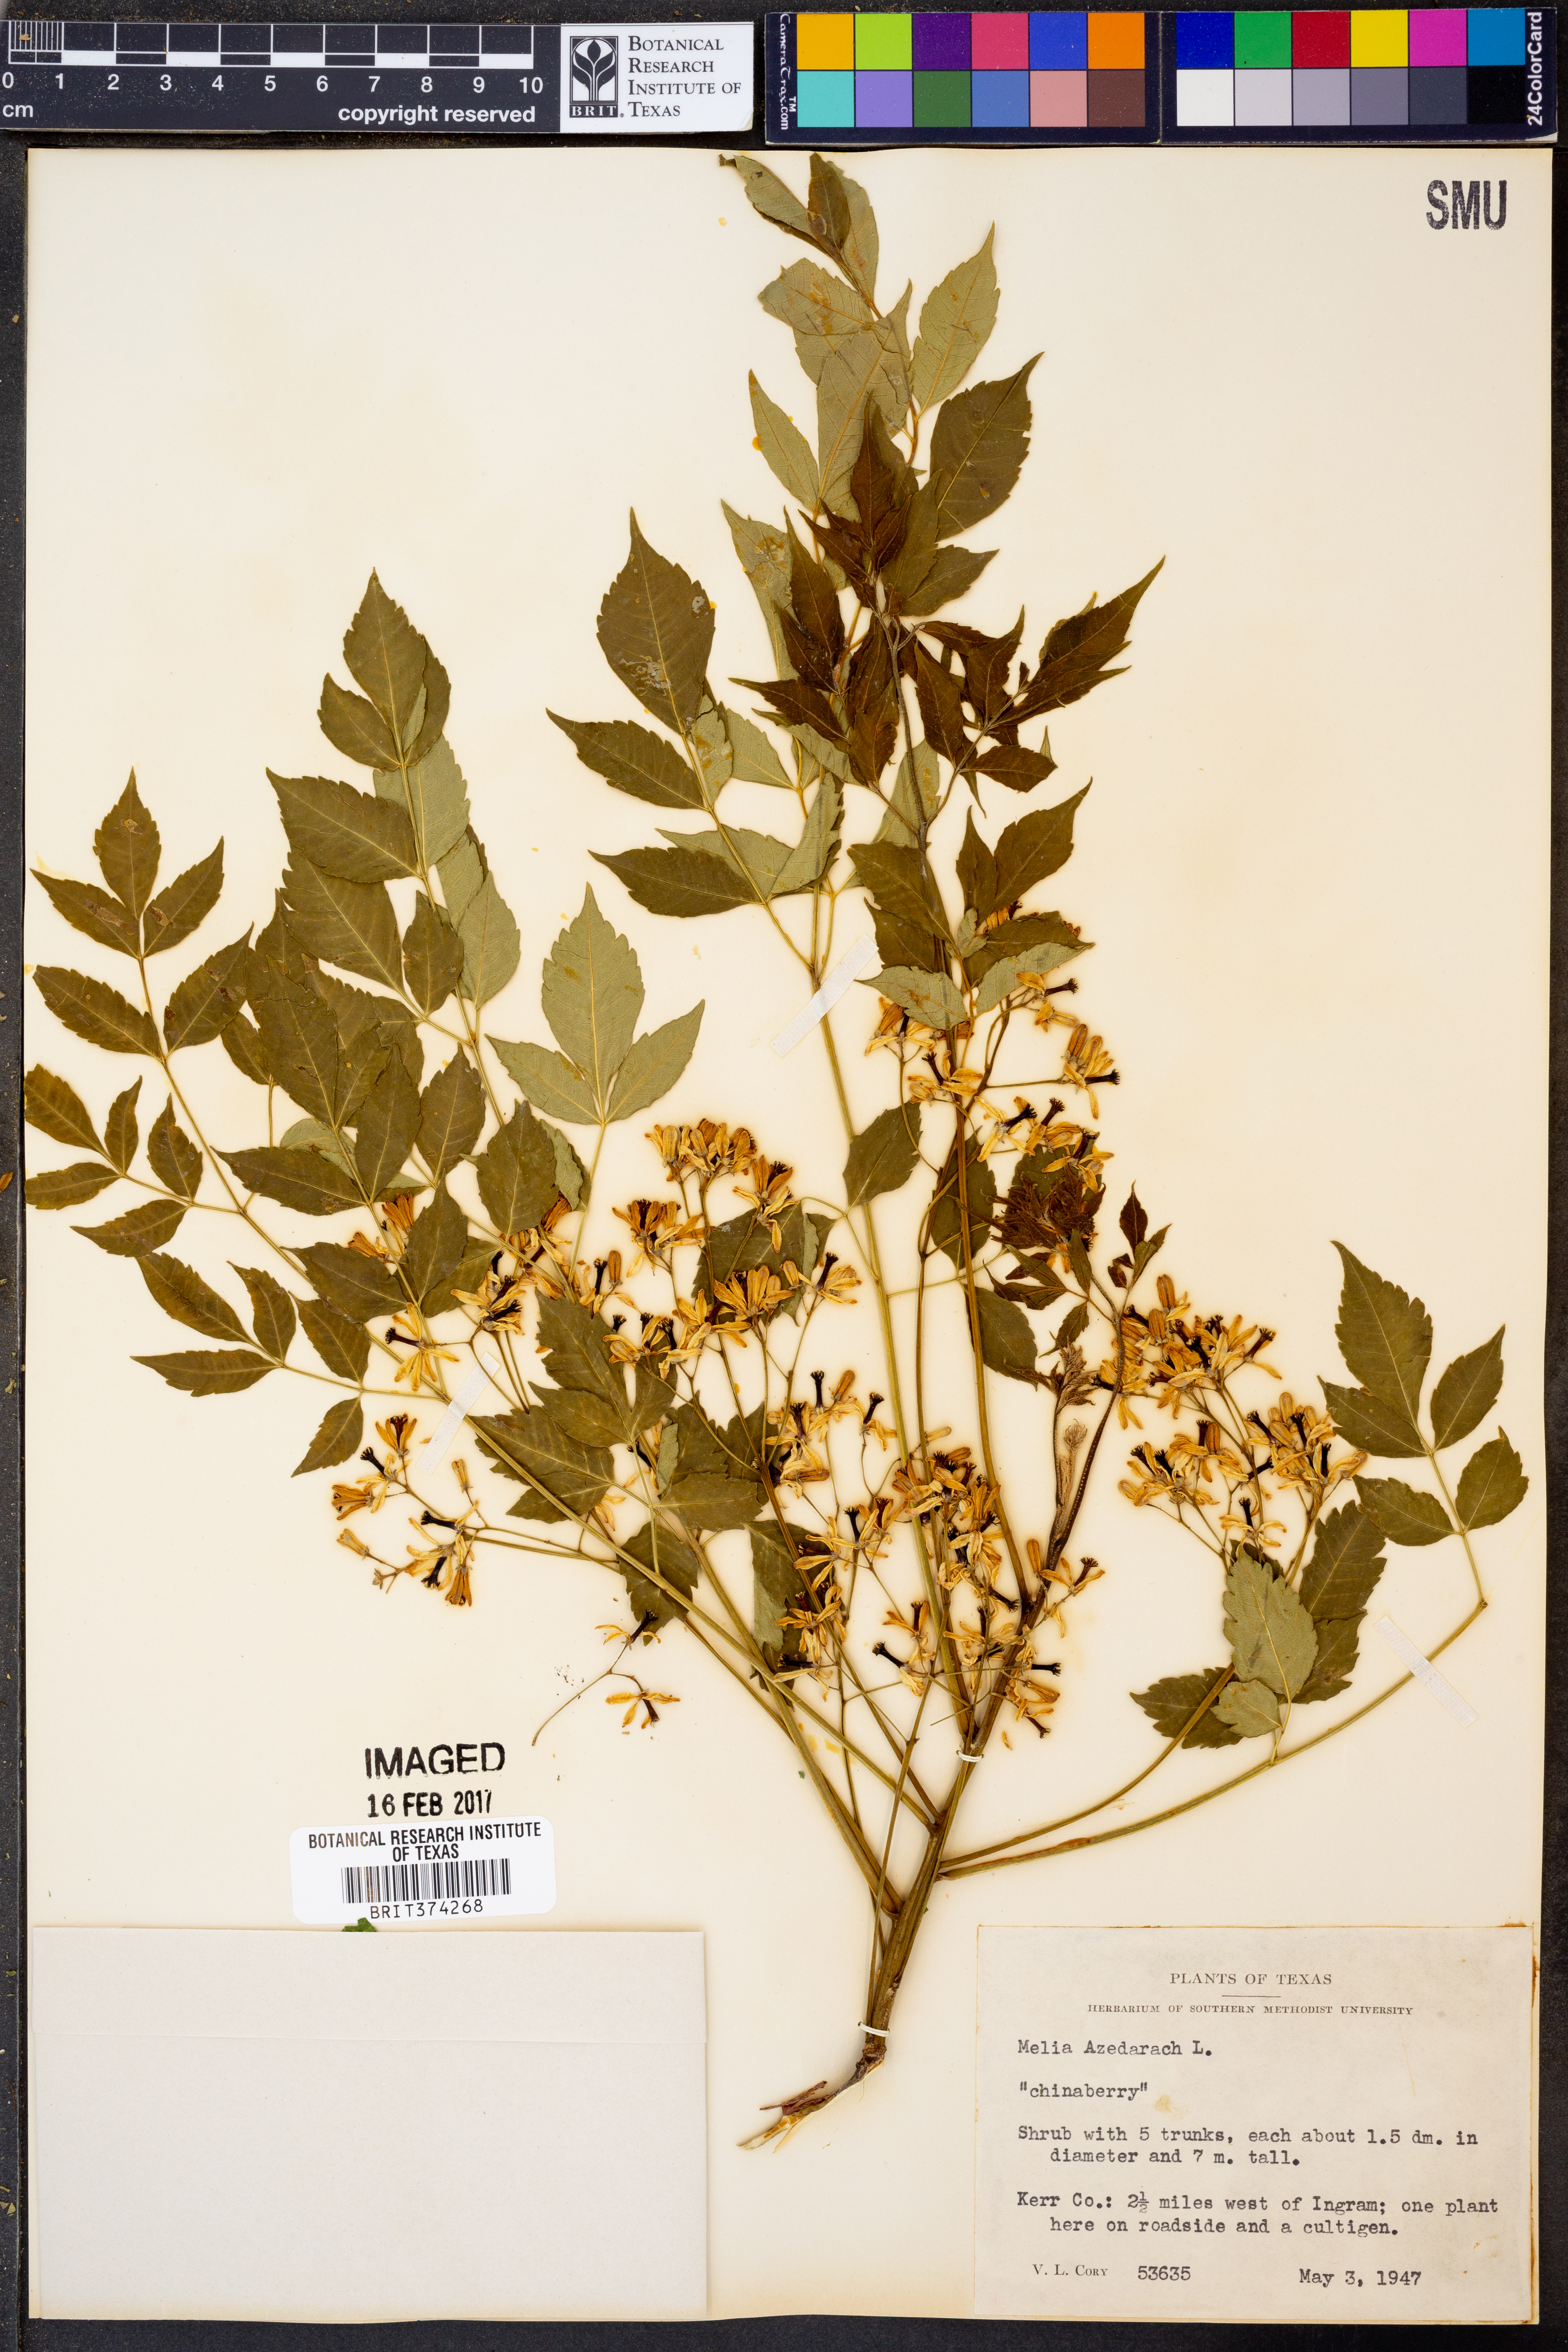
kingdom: Plantae
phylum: Tracheophyta
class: Magnoliopsida
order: Sapindales
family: Meliaceae
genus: Melia
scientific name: Melia azedarach
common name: Chinaberrytree
